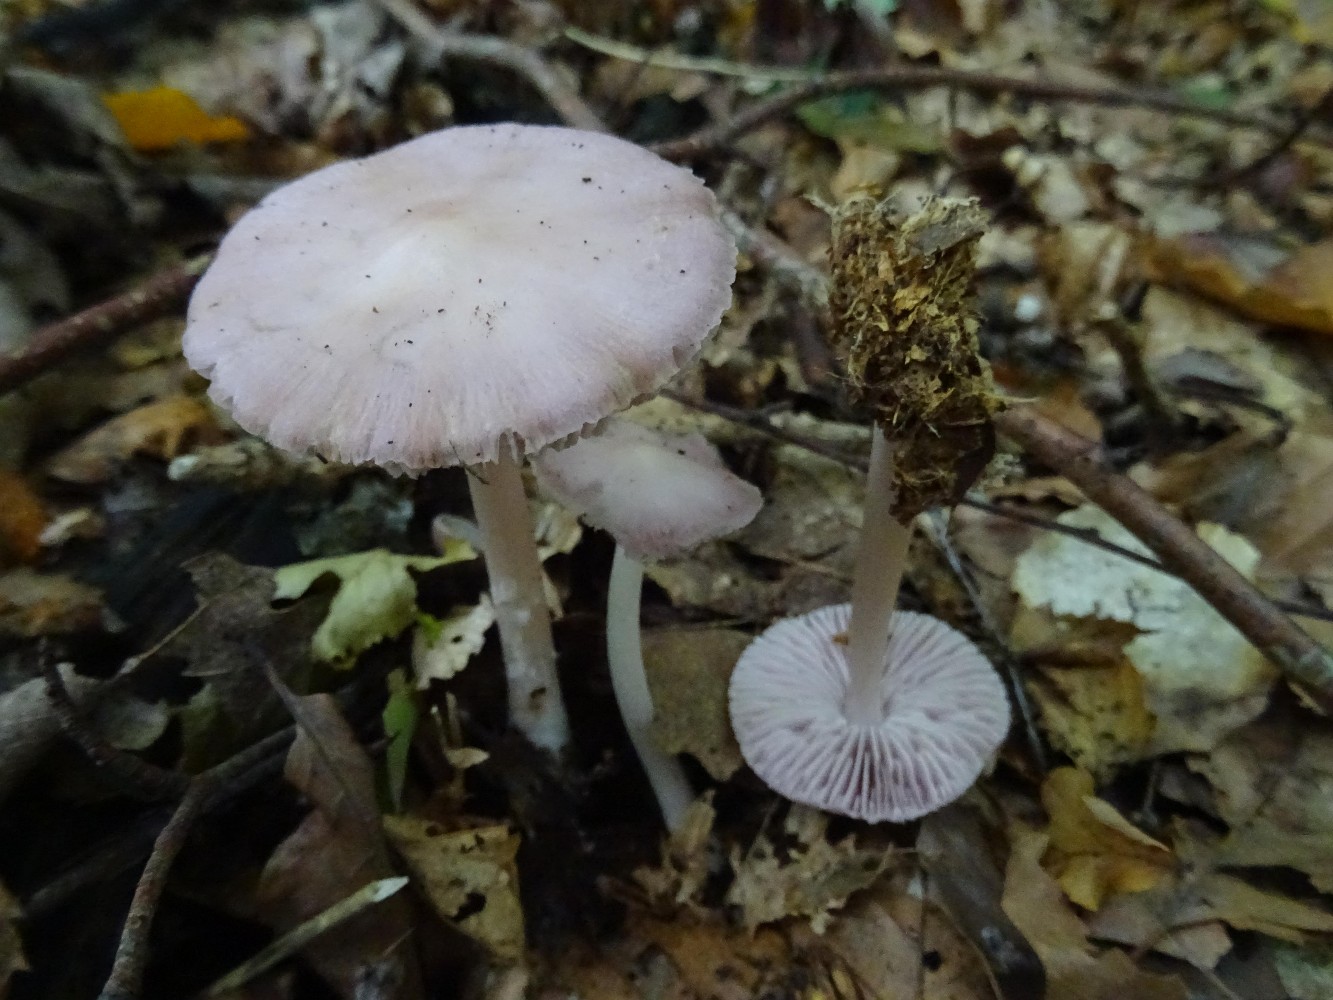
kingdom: Fungi
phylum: Basidiomycota
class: Agaricomycetes
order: Agaricales
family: Mycenaceae
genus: Mycena
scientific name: Mycena rosea
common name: rosa huesvamp
